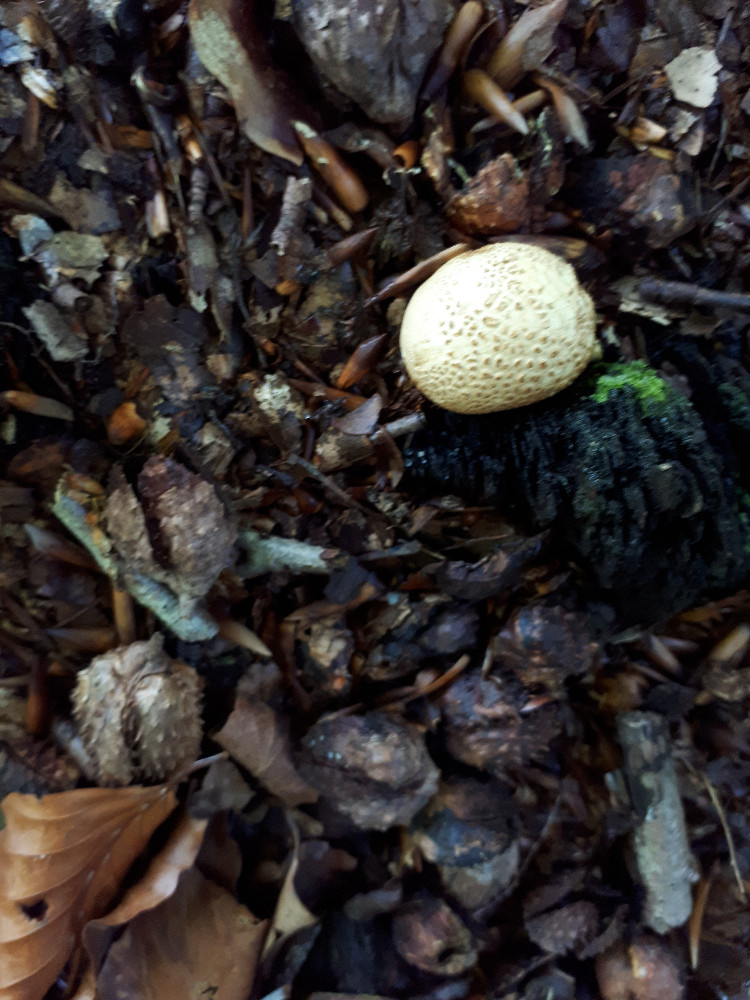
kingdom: Fungi
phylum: Basidiomycota
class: Agaricomycetes
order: Boletales
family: Sclerodermataceae
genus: Scleroderma
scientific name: Scleroderma citrinum
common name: almindelig bruskbold
